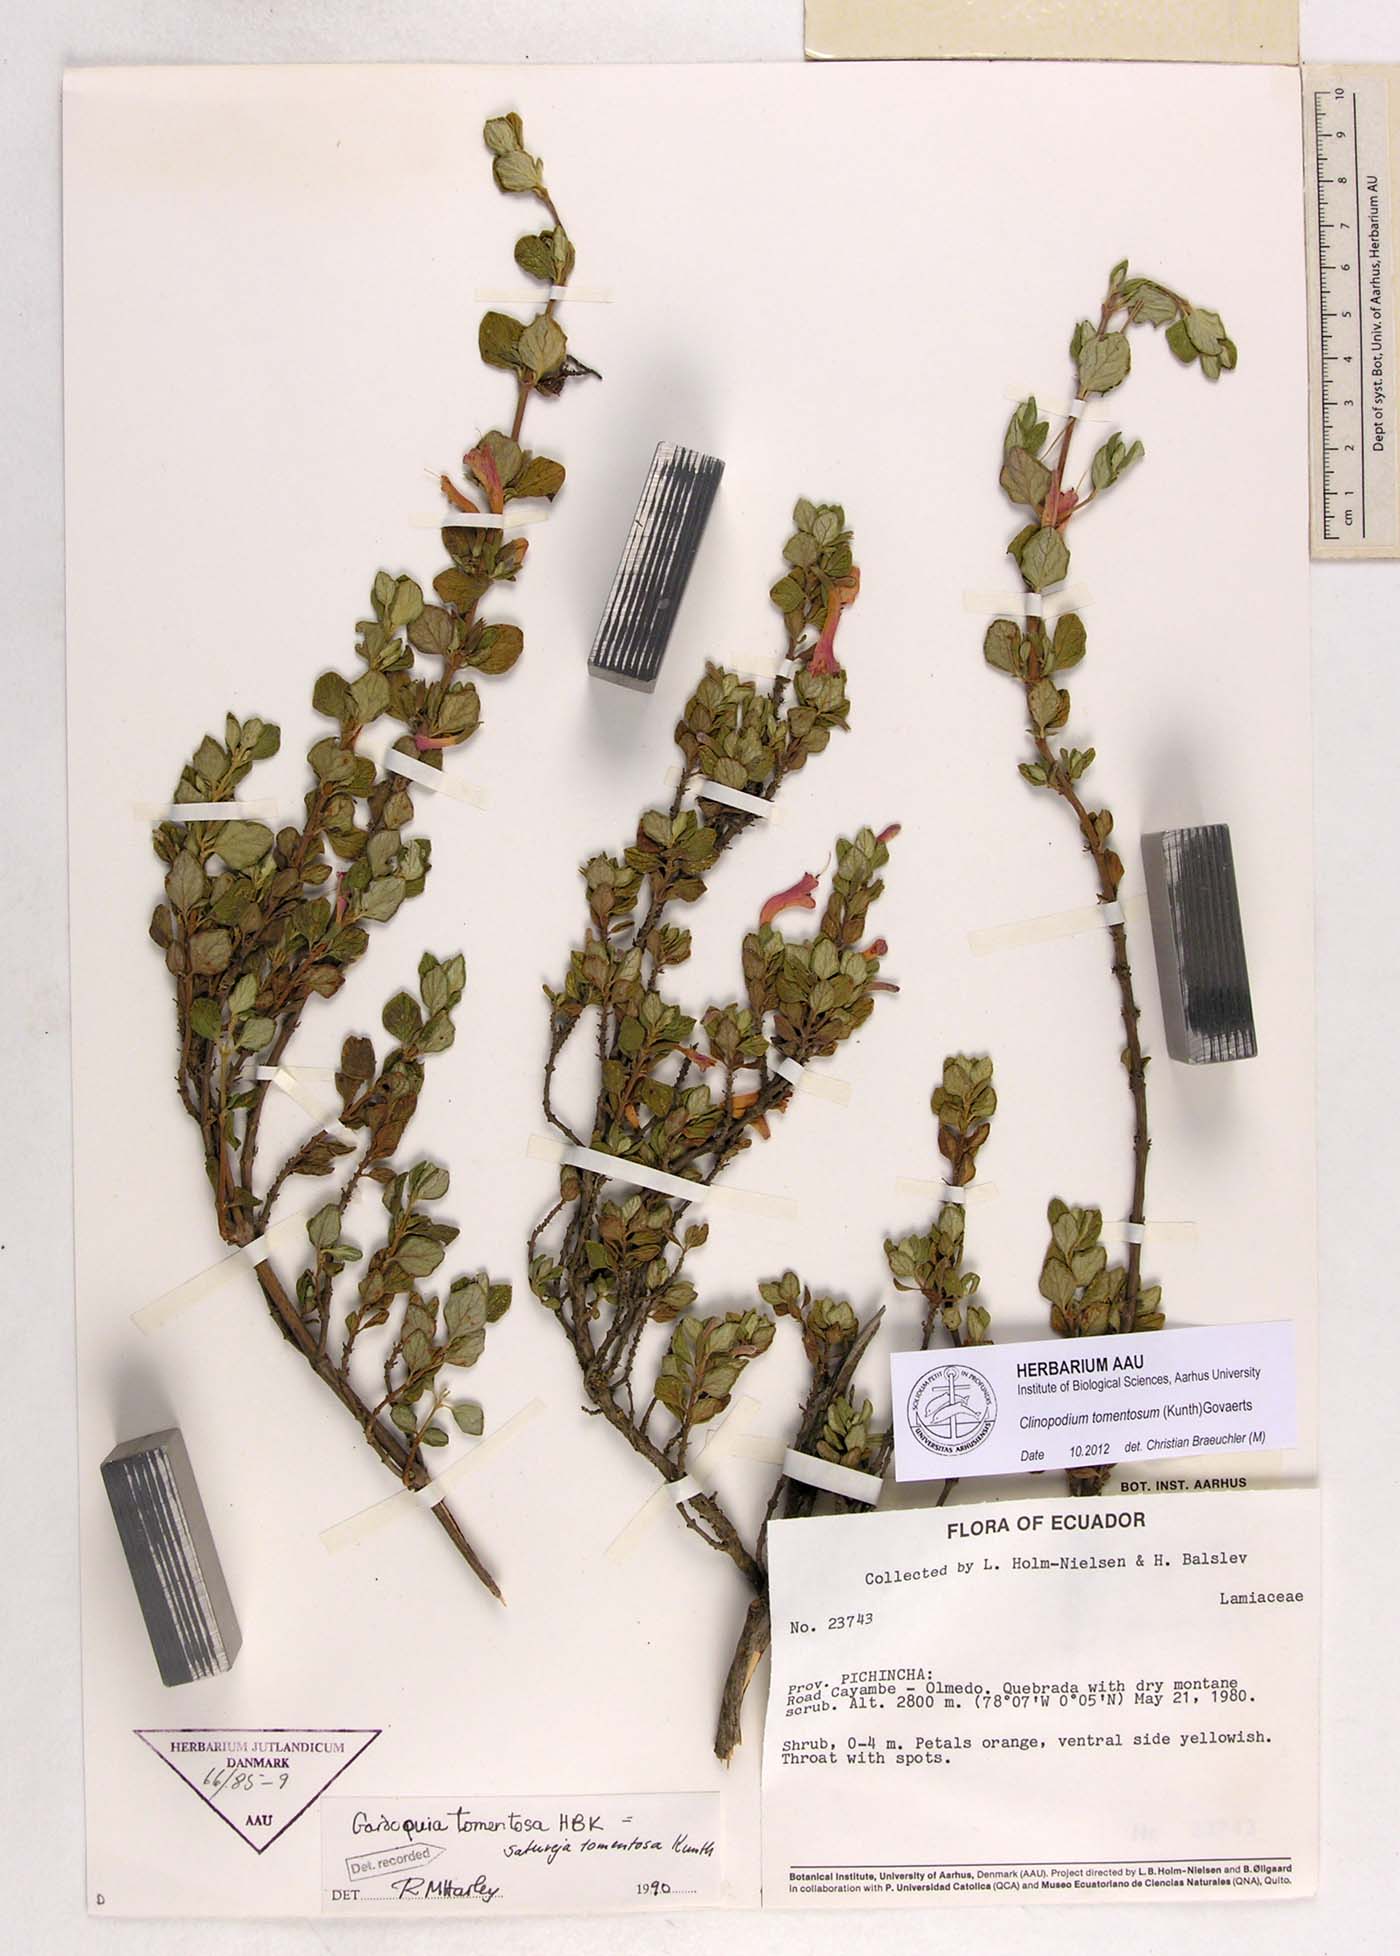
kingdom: Plantae
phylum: Tracheophyta
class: Magnoliopsida
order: Lamiales
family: Lamiaceae
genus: Clinopodium
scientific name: Clinopodium tomentosum
